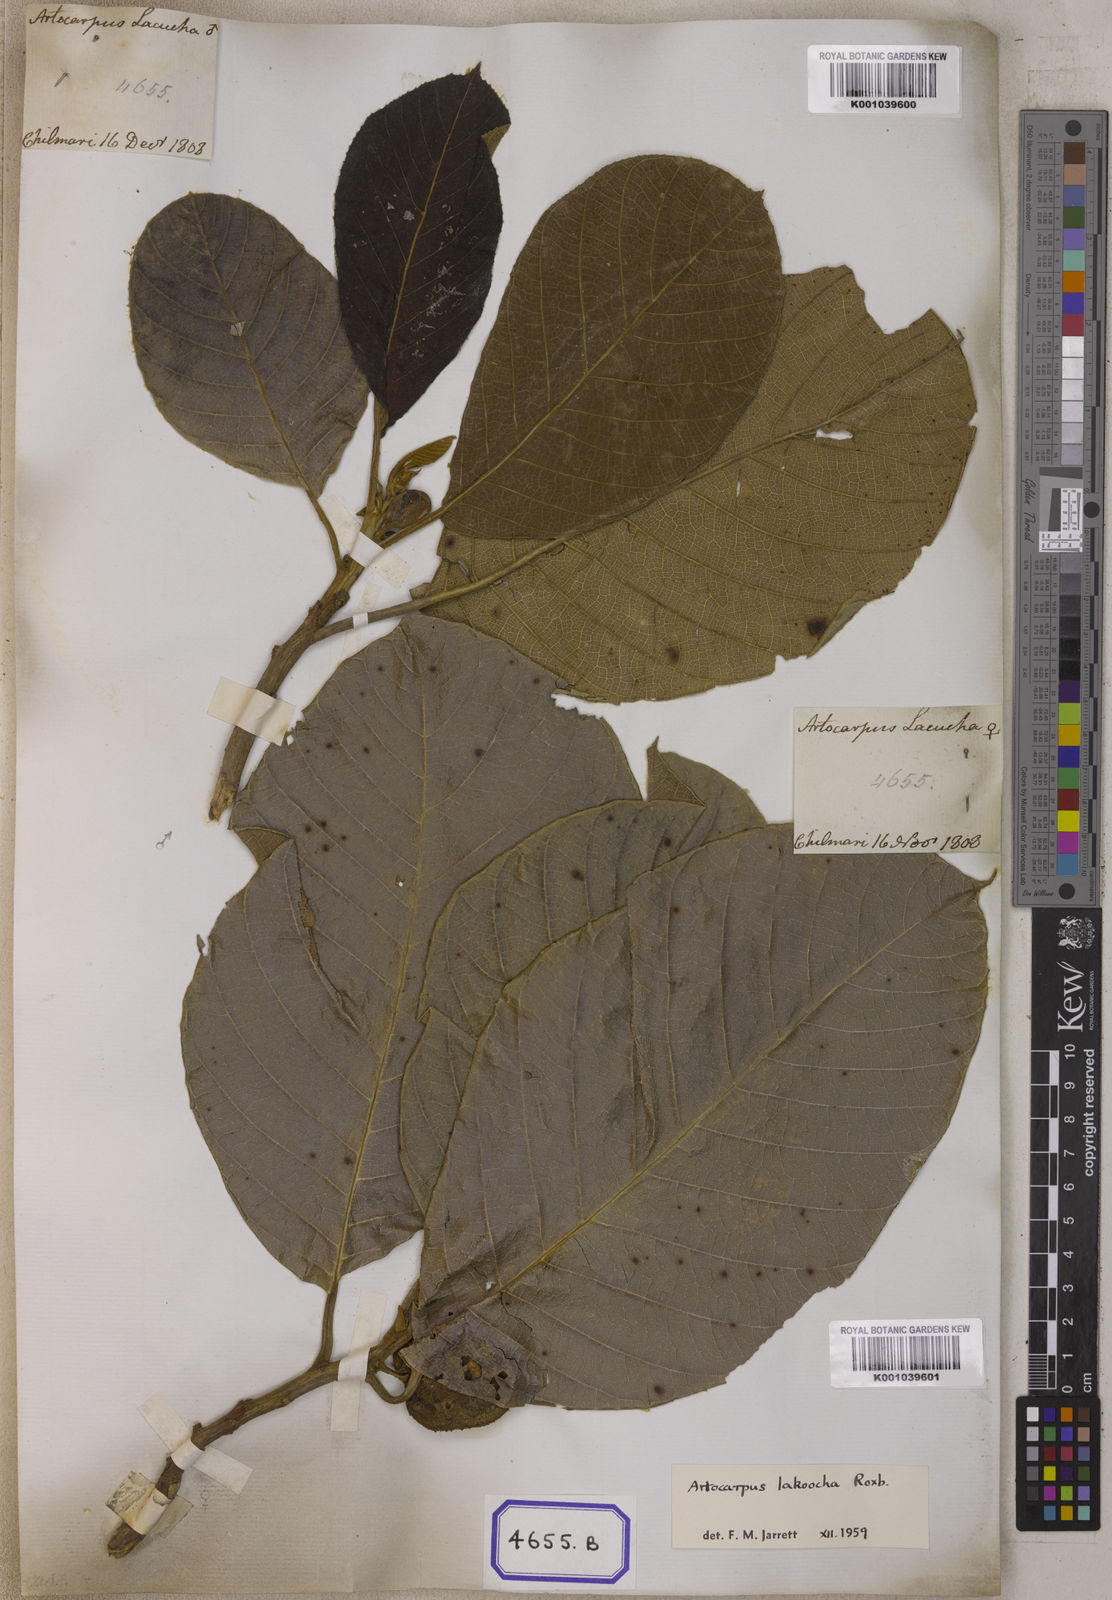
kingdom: Plantae
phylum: Tracheophyta
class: Magnoliopsida
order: Rosales
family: Moraceae
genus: Artocarpus
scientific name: Artocarpus lacucha
